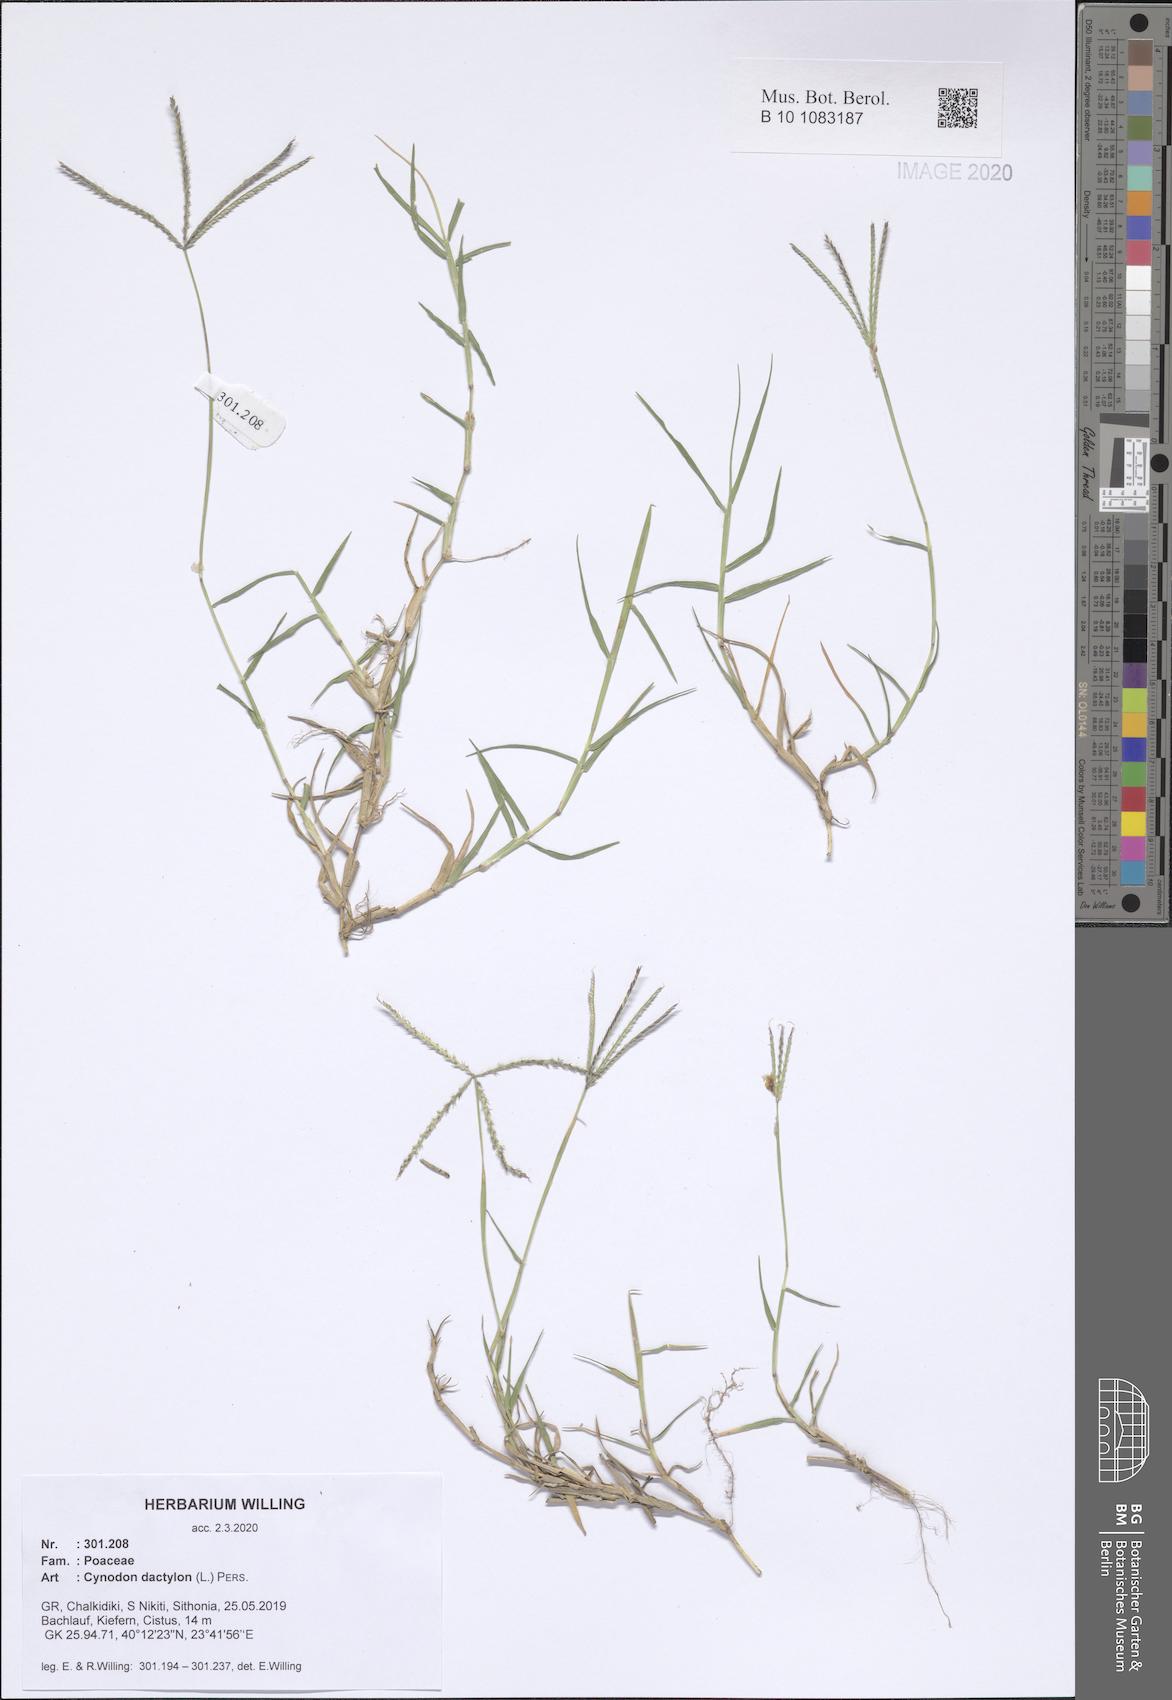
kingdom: Plantae
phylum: Tracheophyta
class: Liliopsida
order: Poales
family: Poaceae
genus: Cynodon
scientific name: Cynodon dactylon
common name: Bermuda grass
